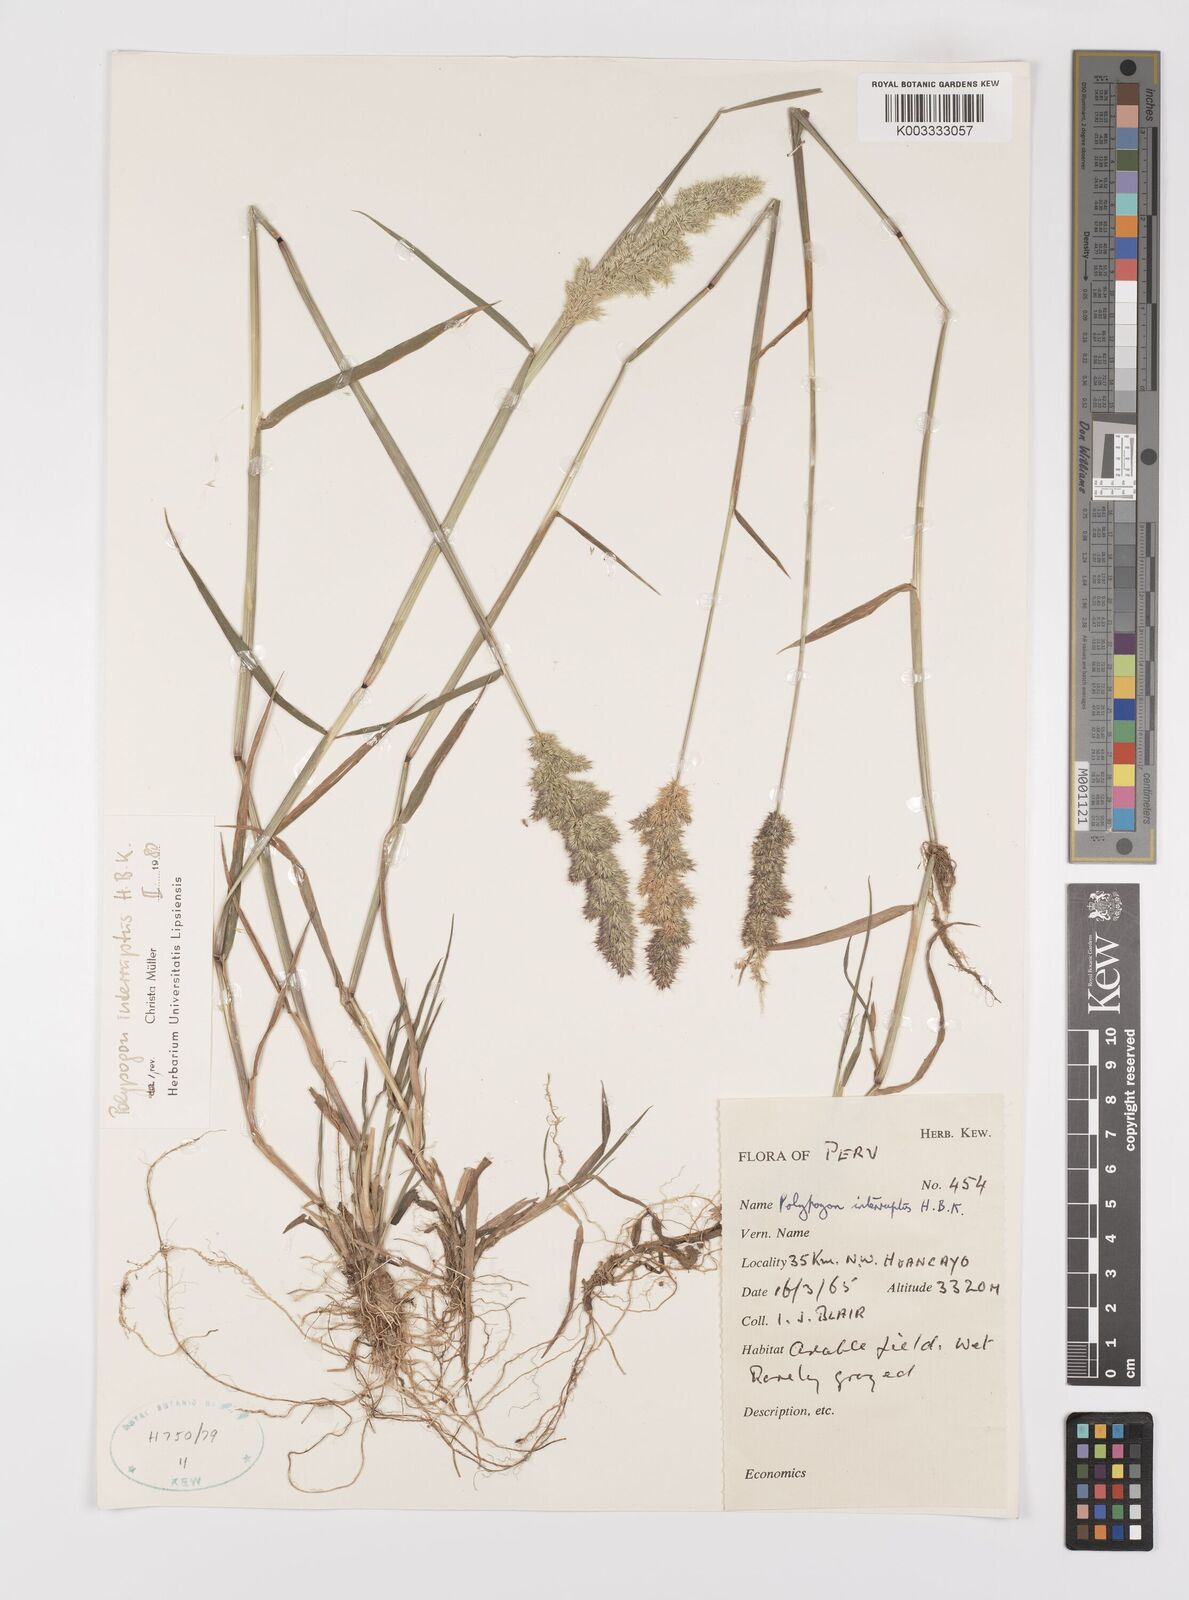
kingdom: Plantae
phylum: Tracheophyta
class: Liliopsida
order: Poales
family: Poaceae
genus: Polypogon
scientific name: Polypogon interruptus
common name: Ditch polypogon
